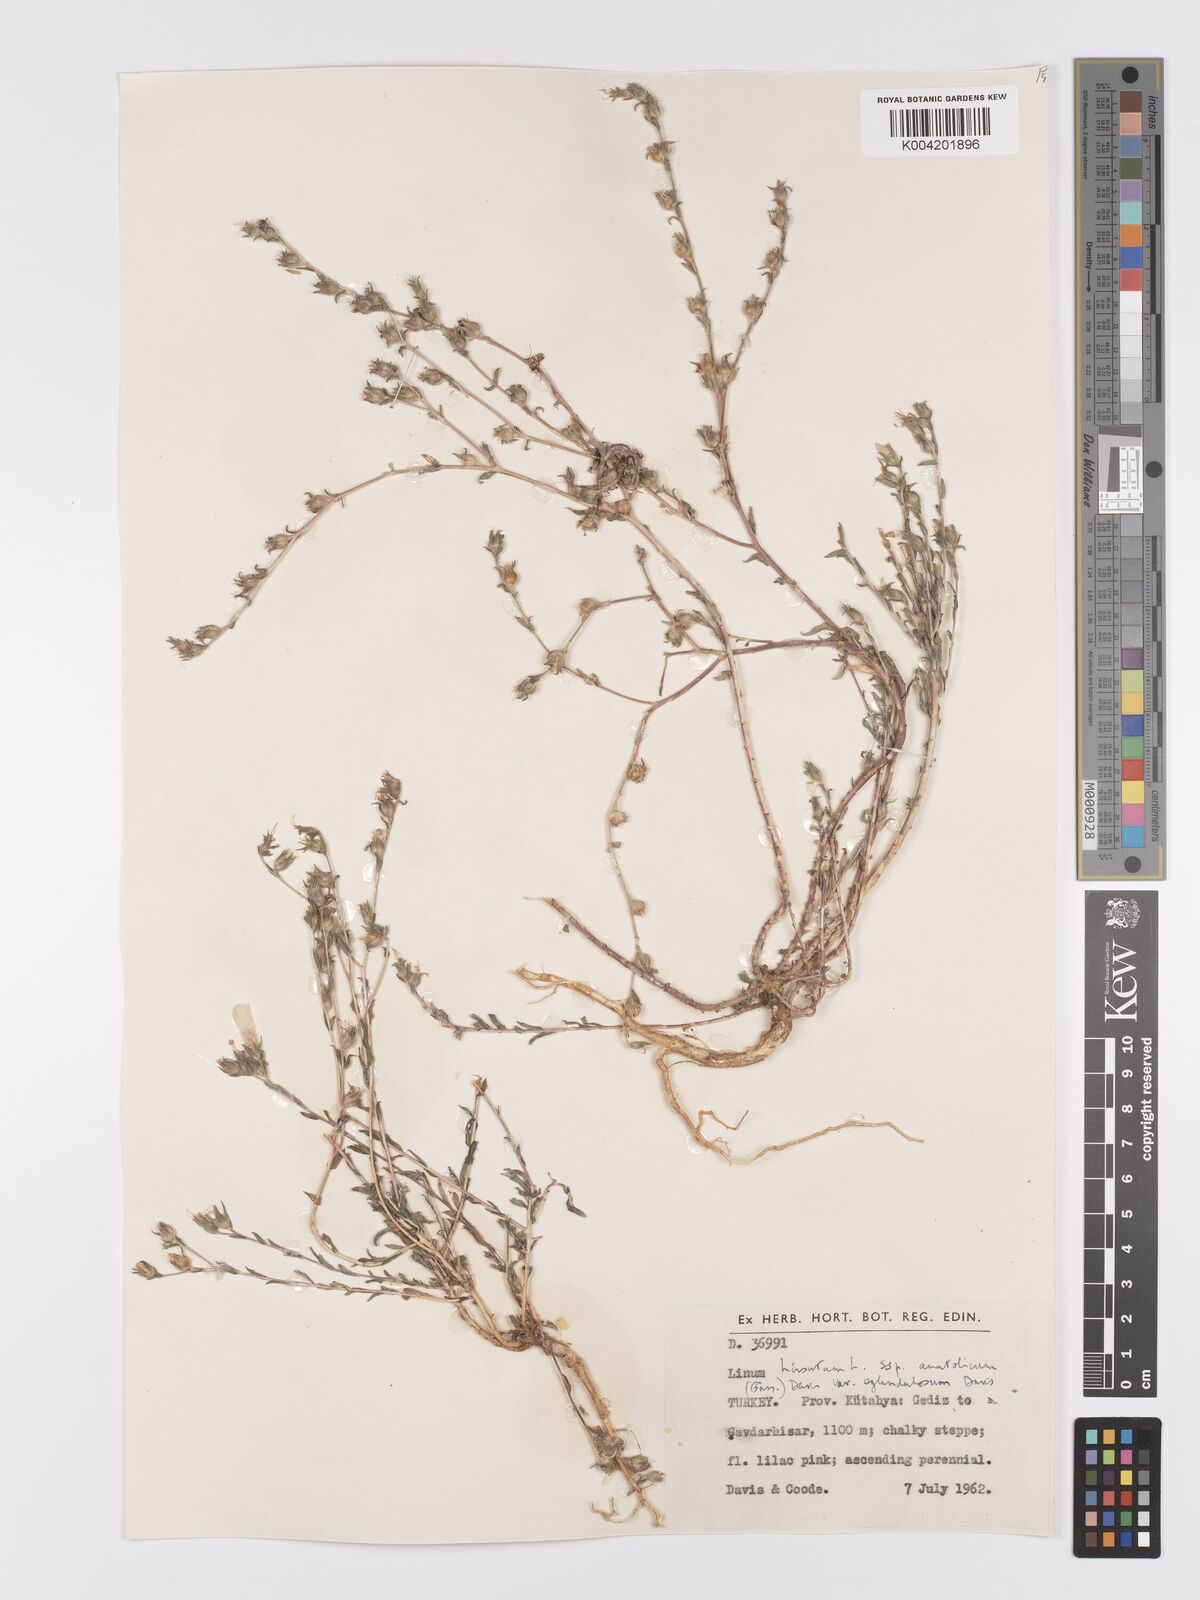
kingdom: Plantae
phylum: Tracheophyta
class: Magnoliopsida
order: Malpighiales
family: Linaceae
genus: Linum
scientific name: Linum
